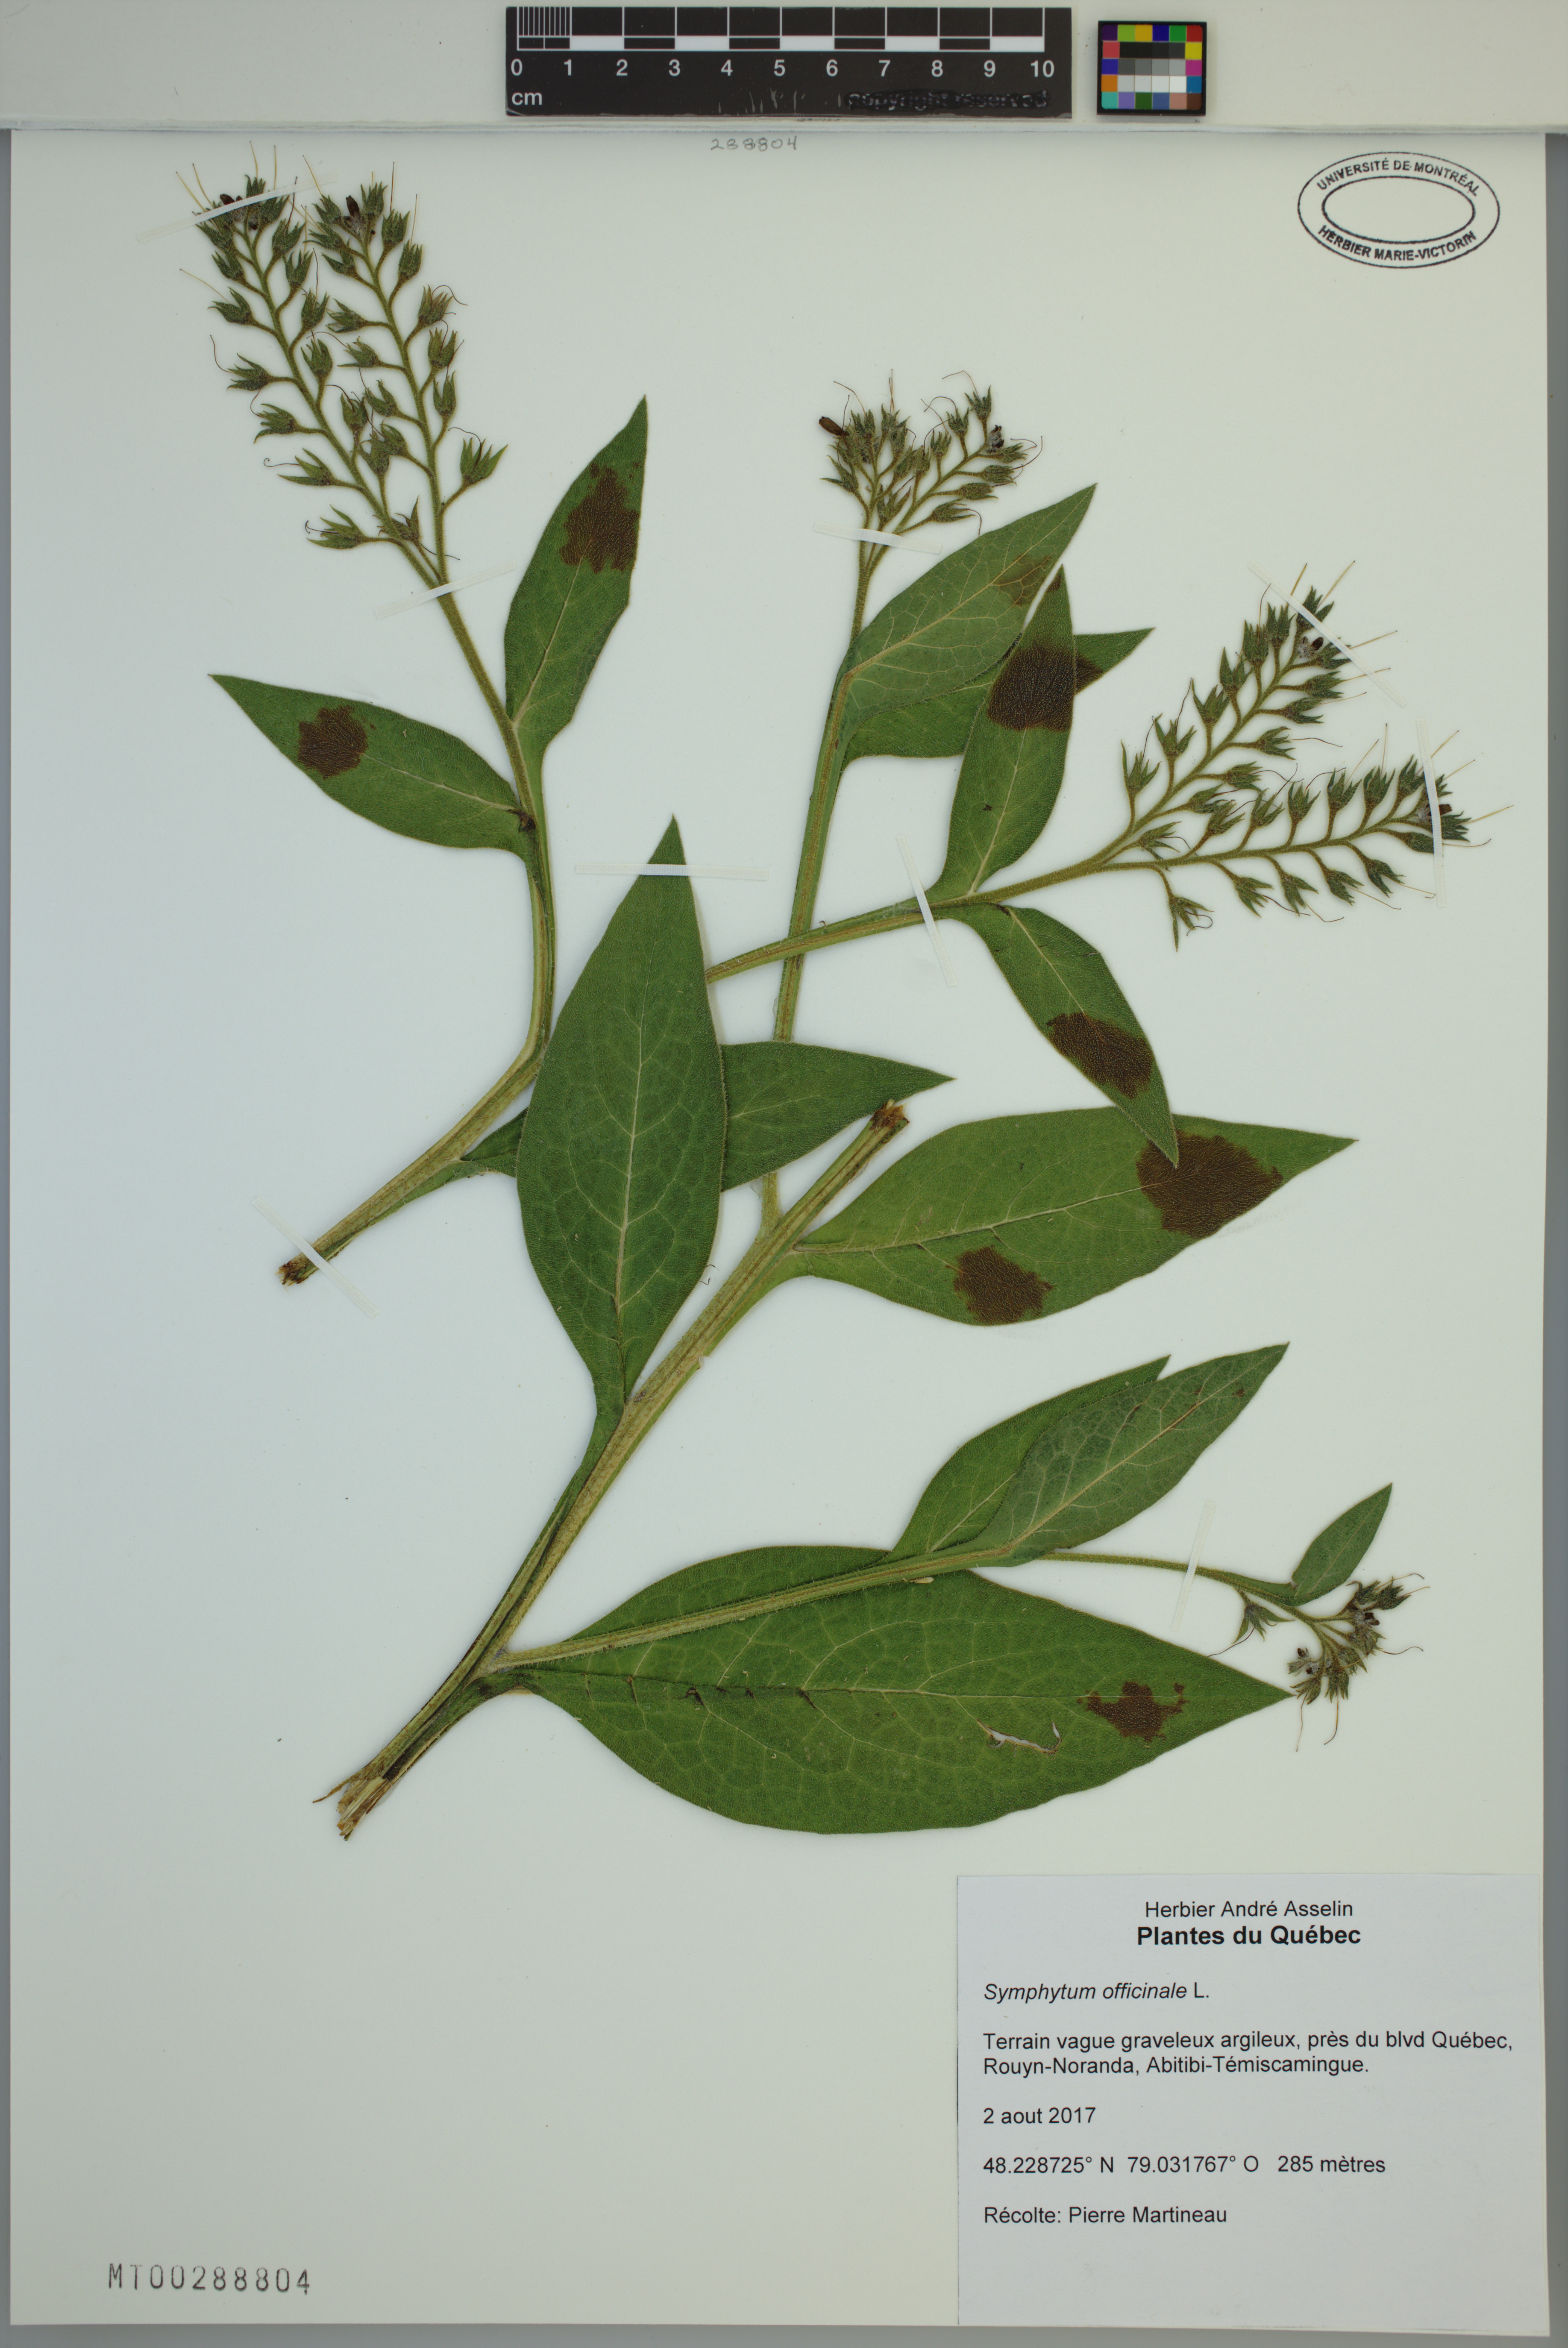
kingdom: Plantae
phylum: Tracheophyta
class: Magnoliopsida
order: Boraginales
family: Boraginaceae
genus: Symphytum
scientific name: Symphytum officinale
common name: Common comfrey
